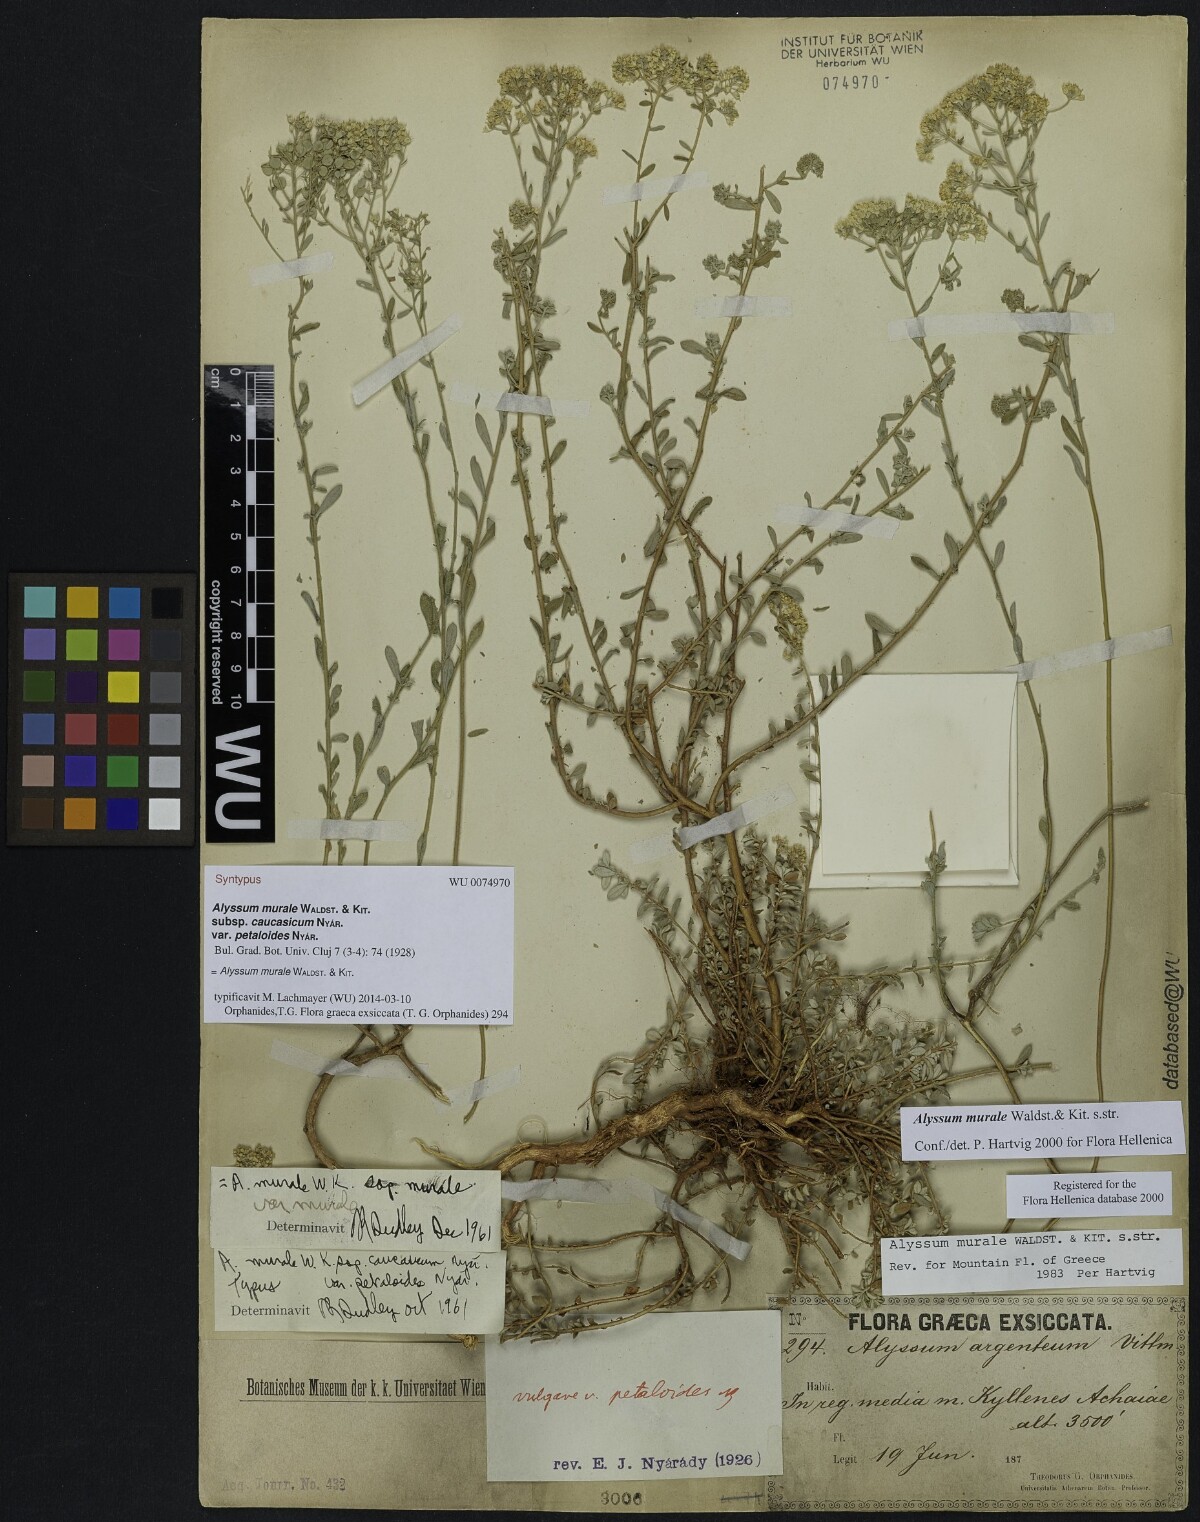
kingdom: Plantae
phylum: Tracheophyta
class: Magnoliopsida
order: Brassicales
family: Brassicaceae
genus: Odontarrhena
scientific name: Odontarrhena muralis
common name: Rock alyssum
